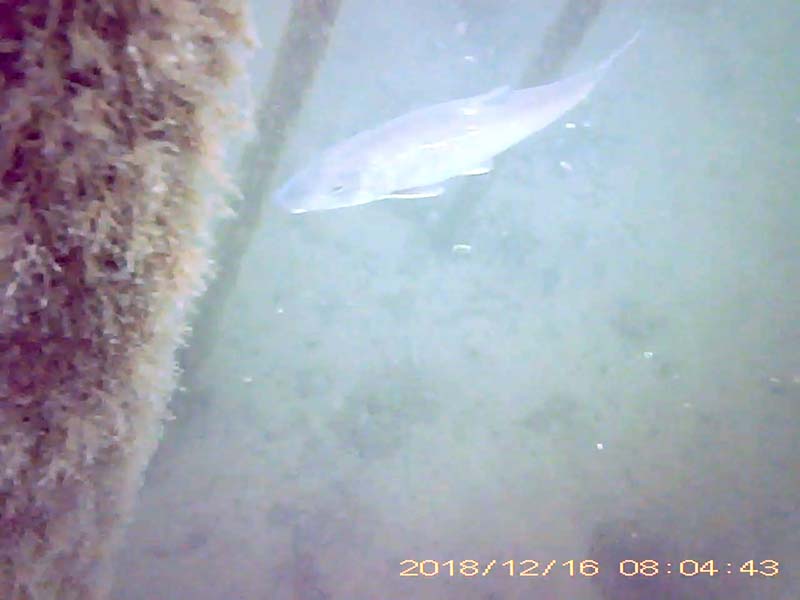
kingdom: Animalia
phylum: Chordata
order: Cypriniformes
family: Cyprinidae
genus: Hemibarbus
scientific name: Hemibarbus labeo
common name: ニゴイ
